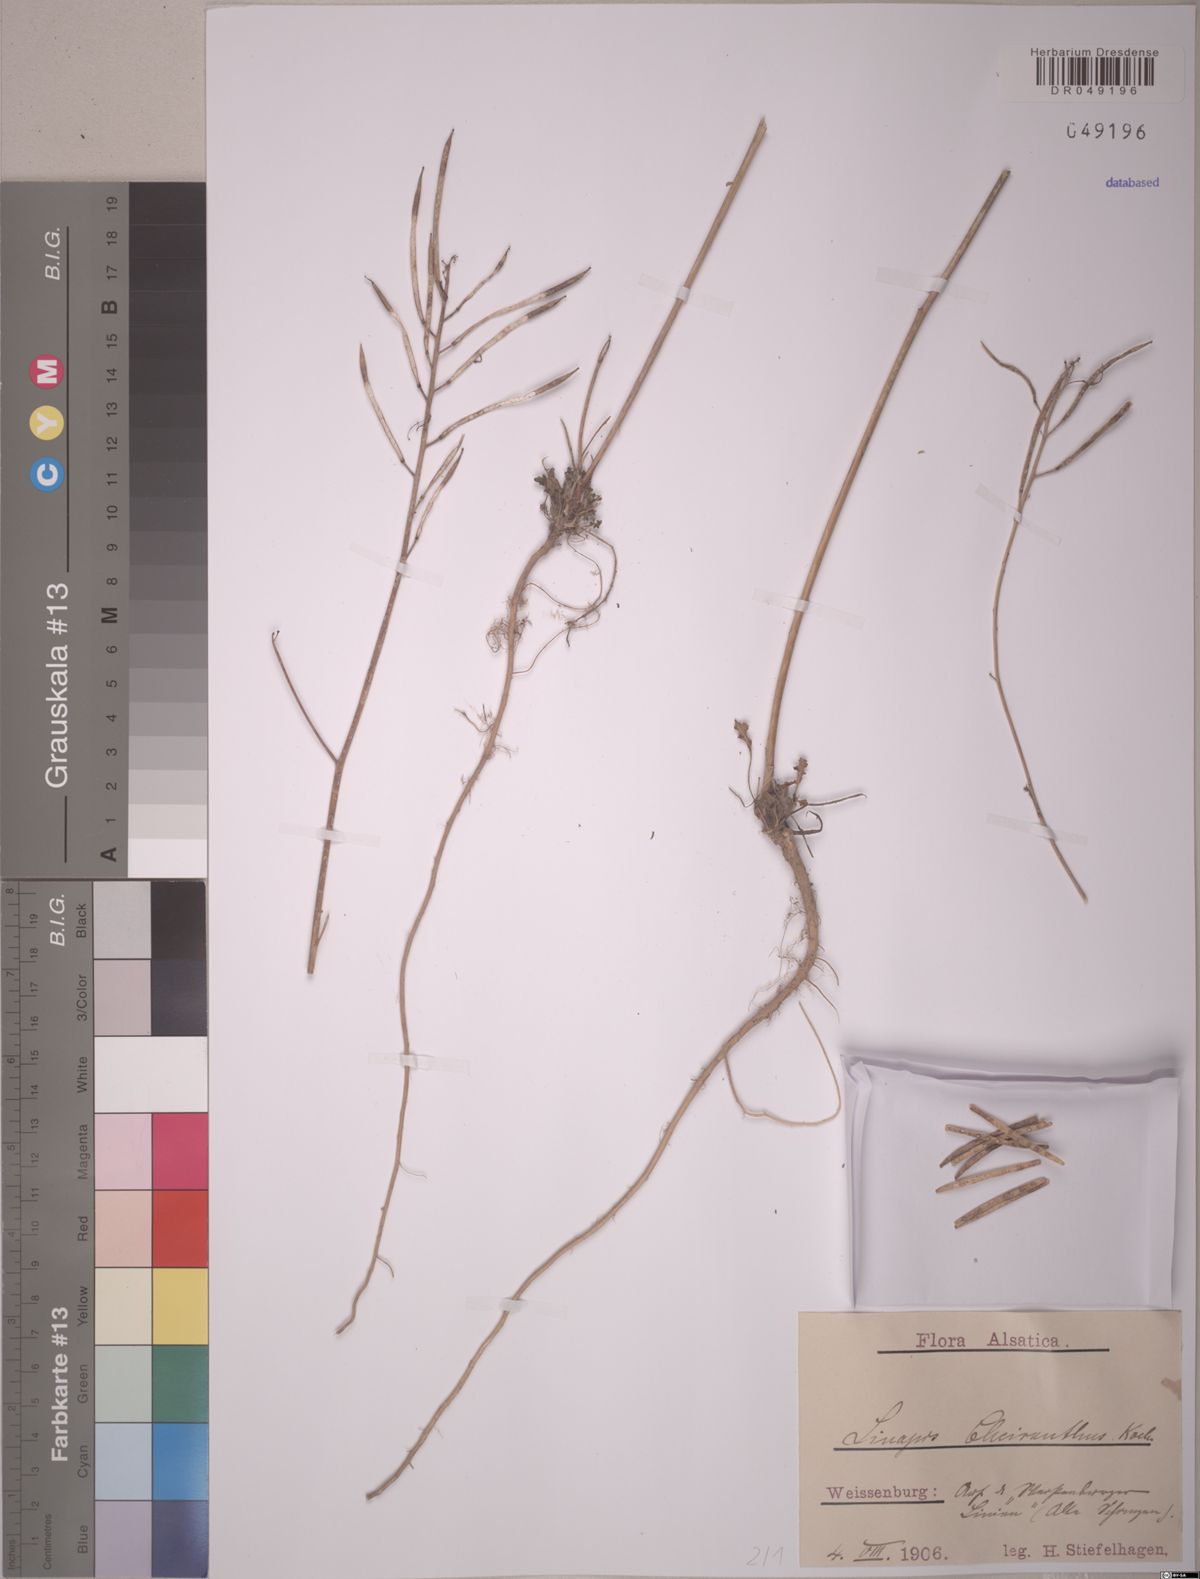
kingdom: Plantae
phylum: Tracheophyta
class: Magnoliopsida
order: Brassicales
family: Brassicaceae
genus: Coincya
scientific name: Coincya monensis
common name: Star-mustard
